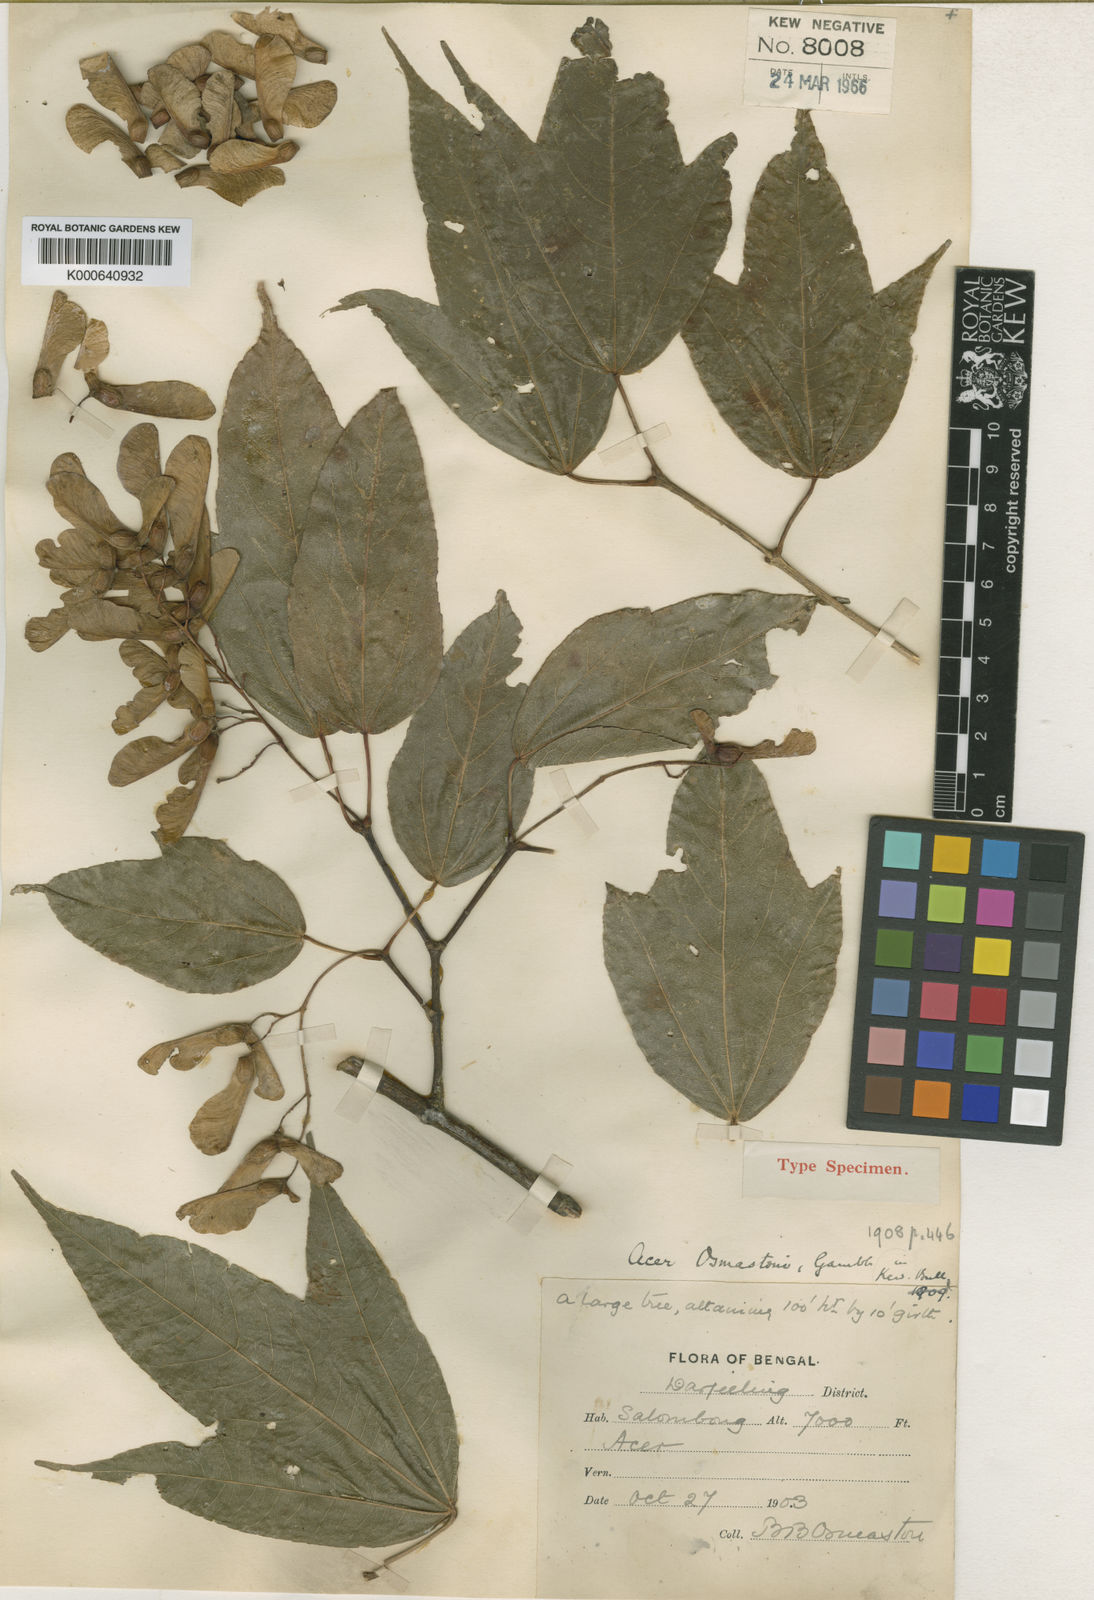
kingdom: Plantae
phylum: Tracheophyta
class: Magnoliopsida
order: Sapindales
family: Sapindaceae
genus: Acer
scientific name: Acer calcaratum
